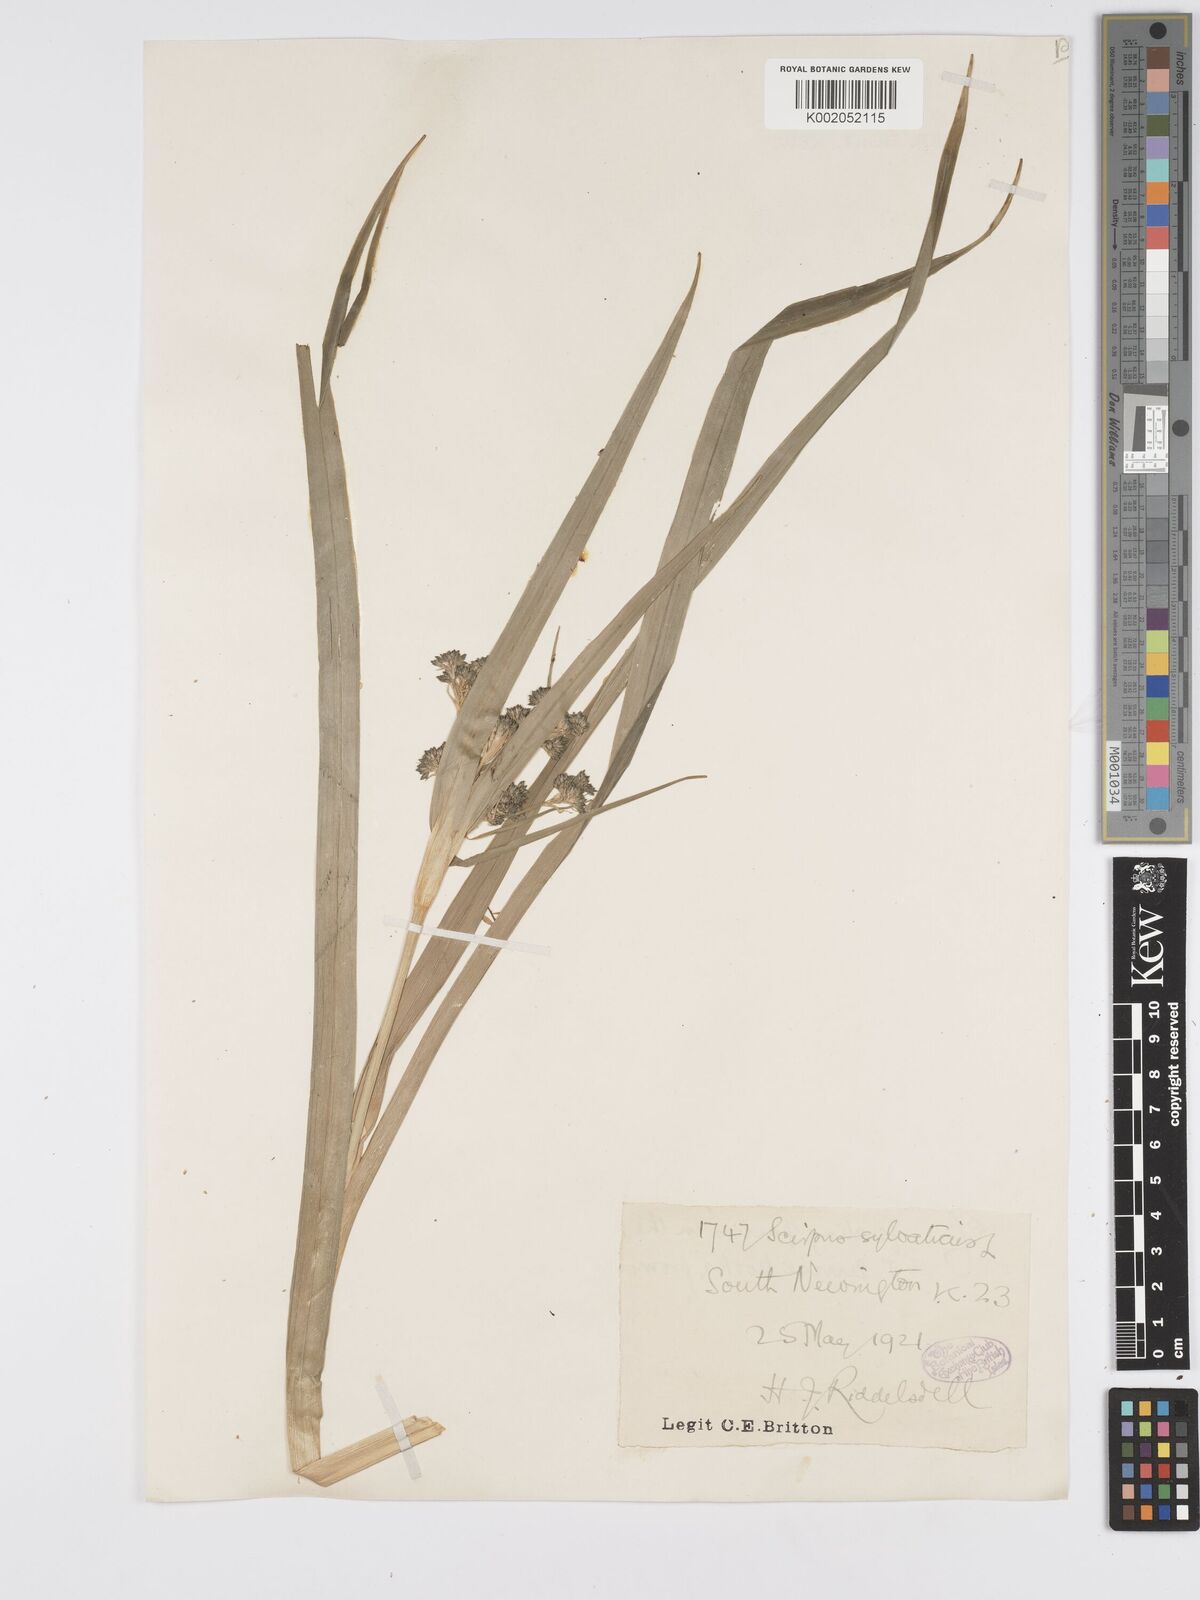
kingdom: Plantae
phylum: Tracheophyta
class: Liliopsida
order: Poales
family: Cyperaceae
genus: Scirpus
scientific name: Scirpus sylvaticus
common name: Wood club-rush
